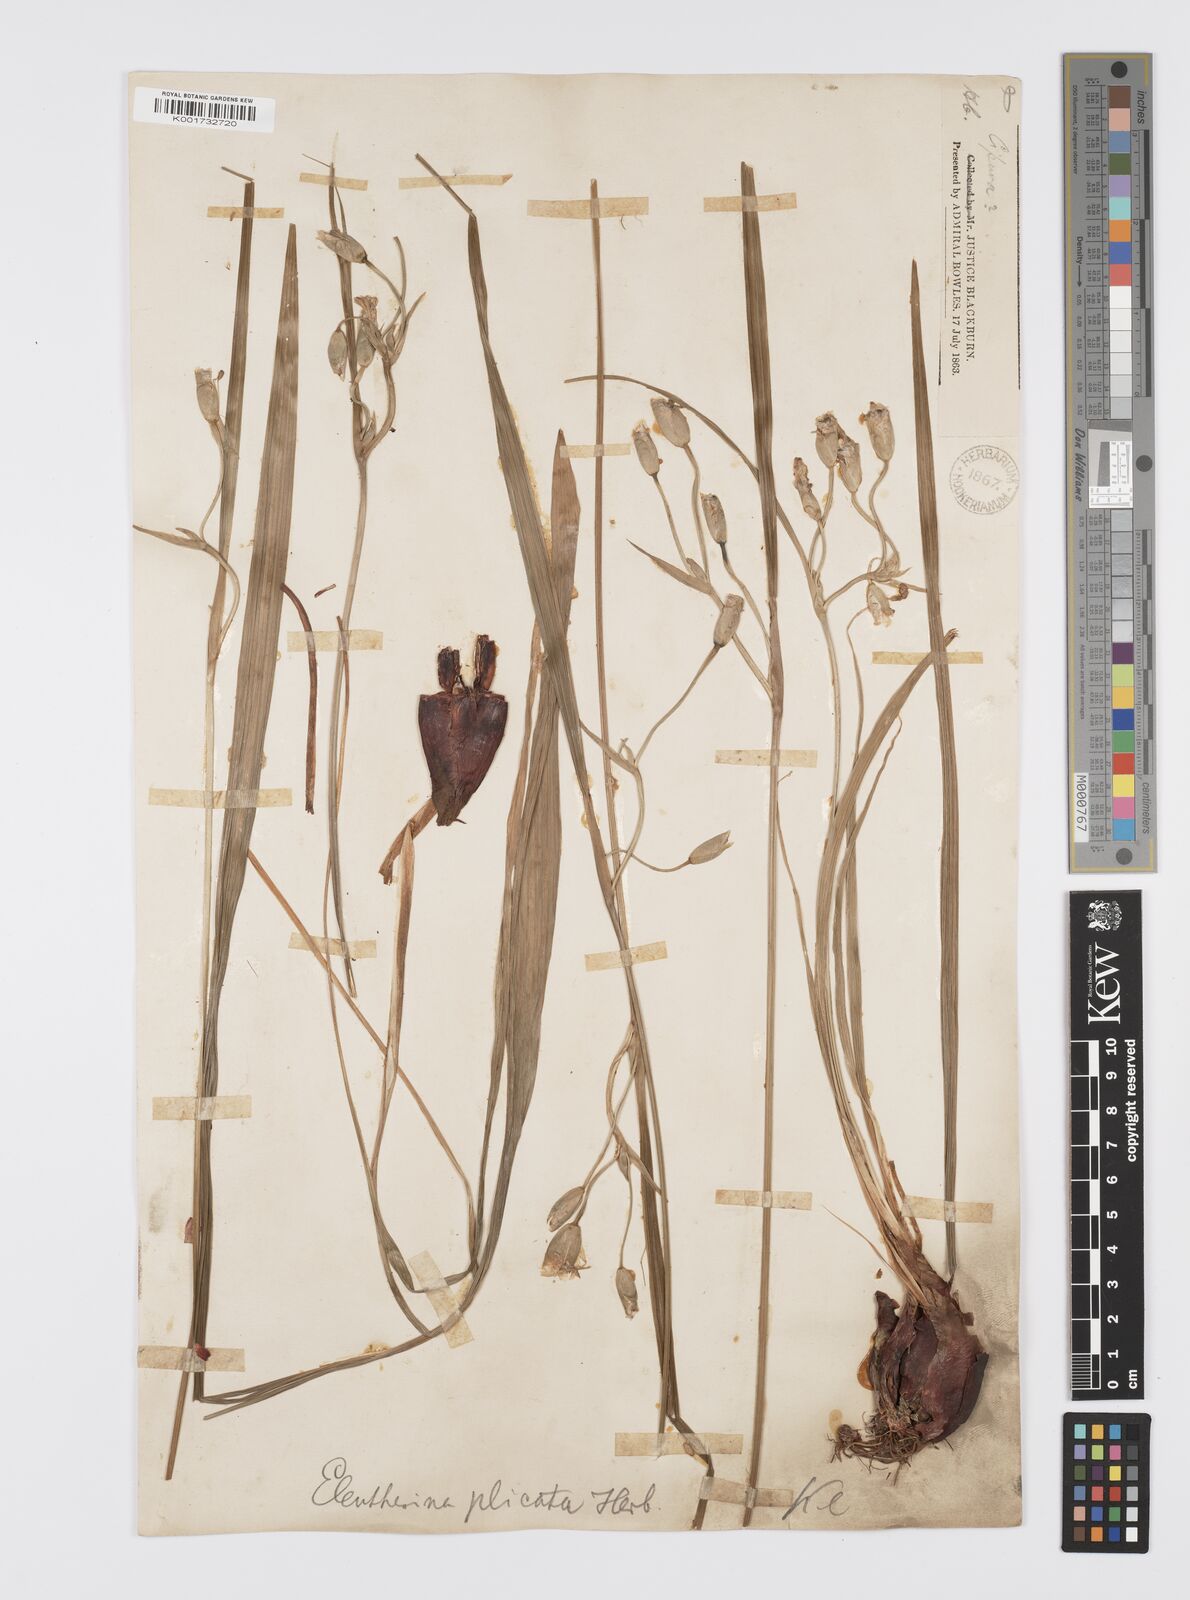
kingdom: Plantae
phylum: Tracheophyta
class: Liliopsida
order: Asparagales
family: Iridaceae
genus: Eleutherine
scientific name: Eleutherine bulbosa
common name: Lagrimas de la virgen
